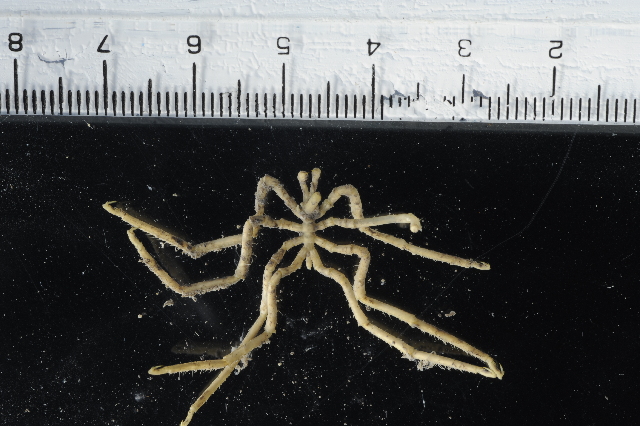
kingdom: Animalia
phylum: Arthropoda
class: Pycnogonida
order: Pantopoda
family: Pallenopsidae
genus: Pallenopsis
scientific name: Pallenopsis latefrontalis
